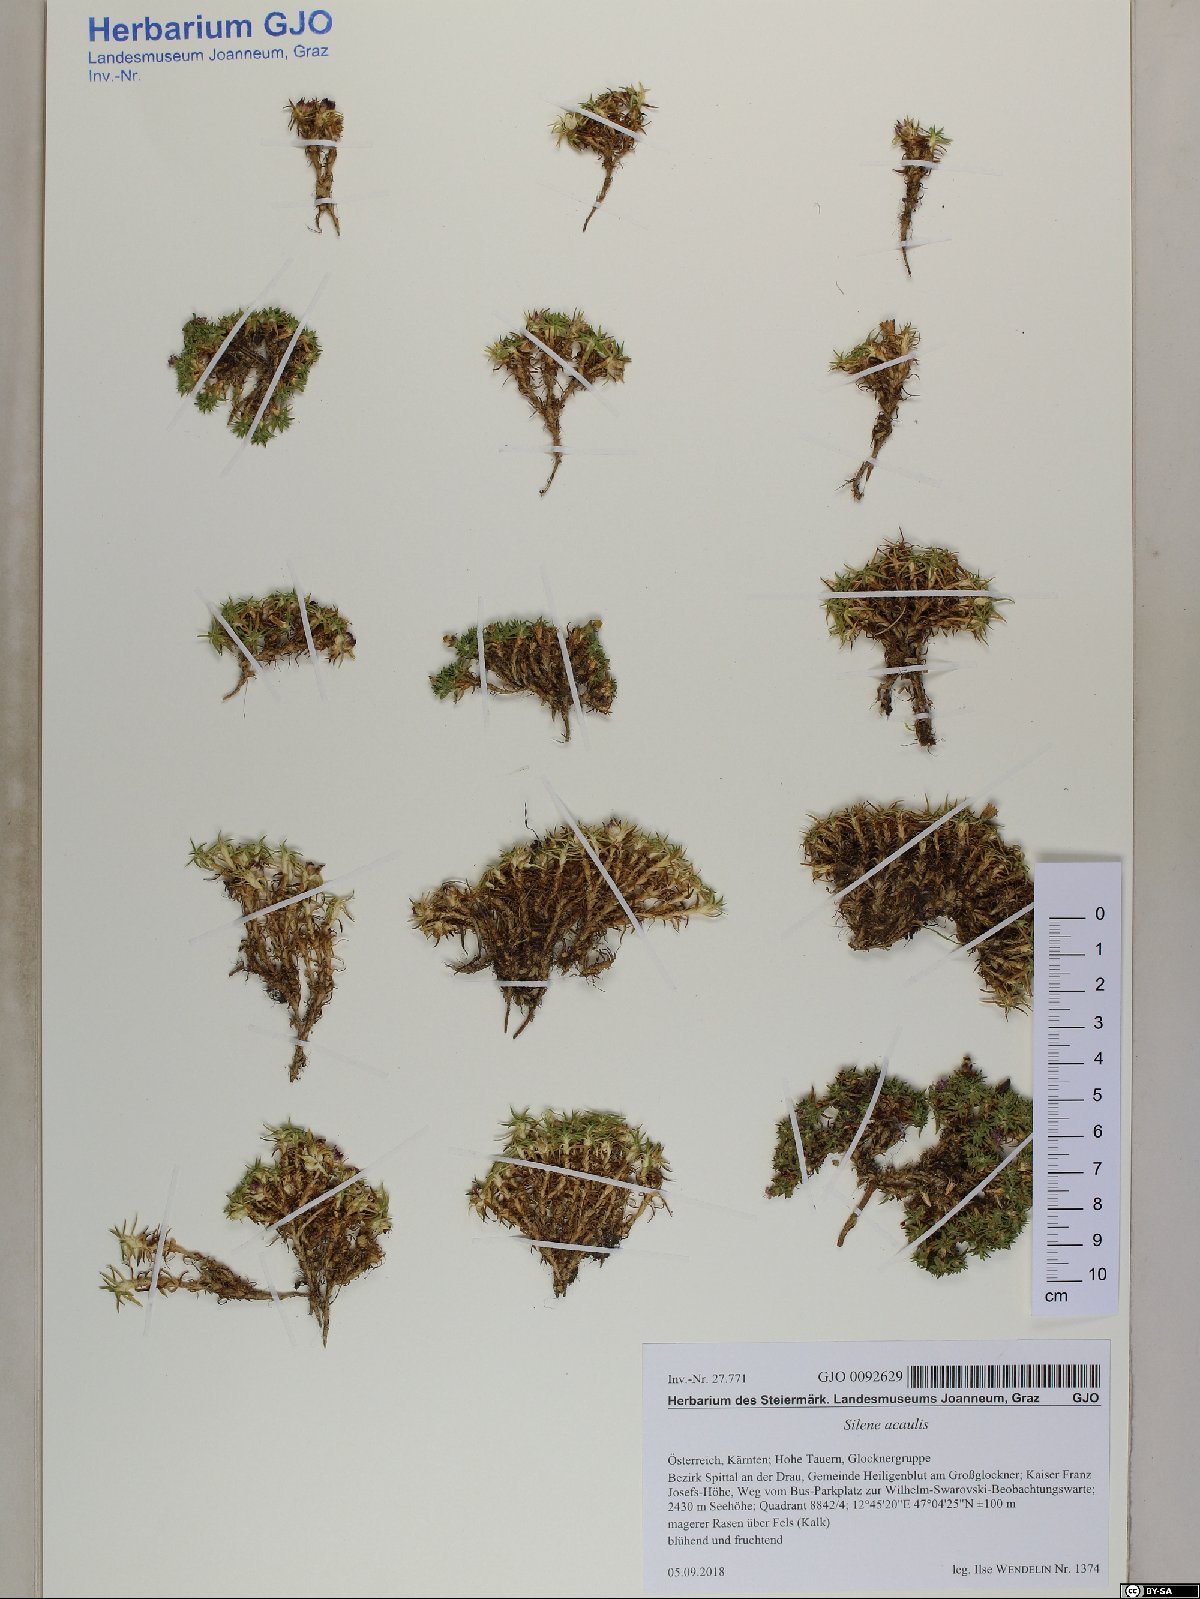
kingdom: Plantae
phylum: Tracheophyta
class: Magnoliopsida
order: Caryophyllales
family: Caryophyllaceae
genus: Silene
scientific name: Silene acaulis
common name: Moss campion
